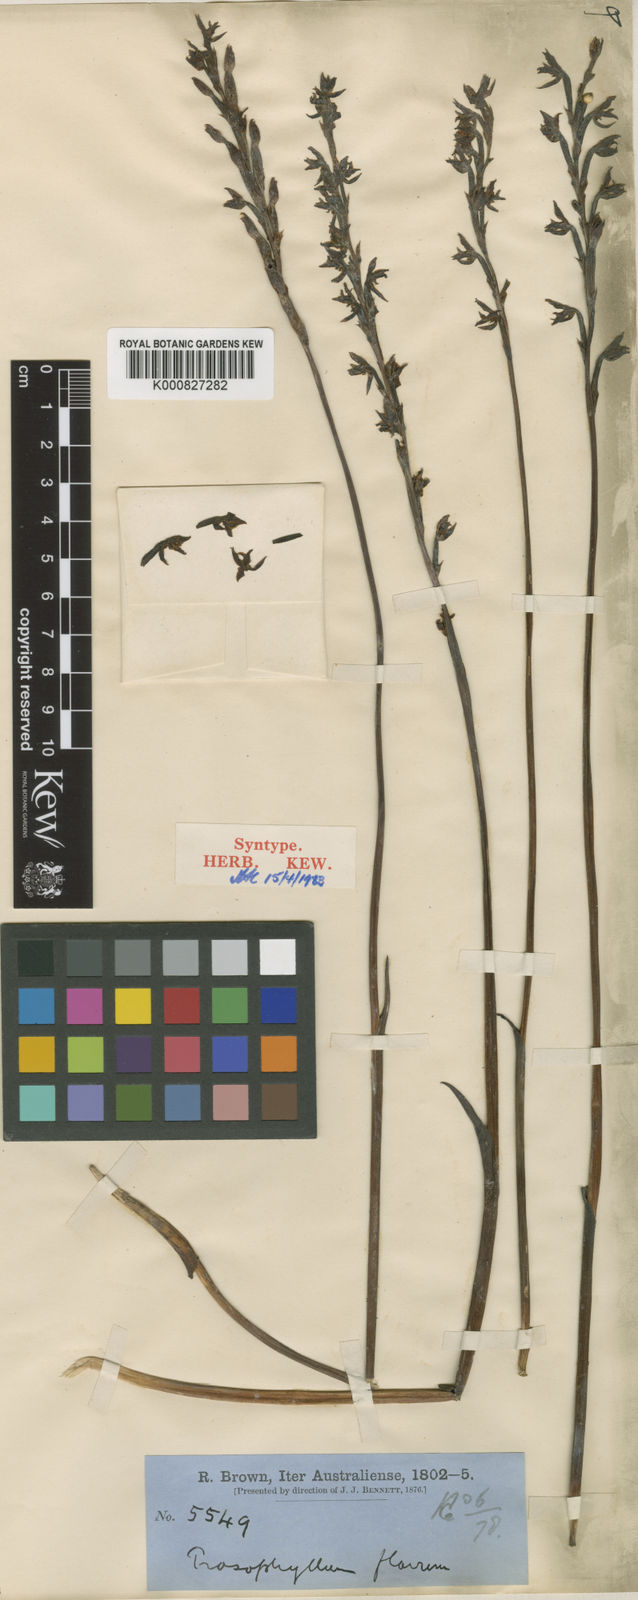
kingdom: Plantae
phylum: Tracheophyta
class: Liliopsida
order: Asparagales
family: Orchidaceae
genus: Prasophyllum
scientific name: Prasophyllum flavum
